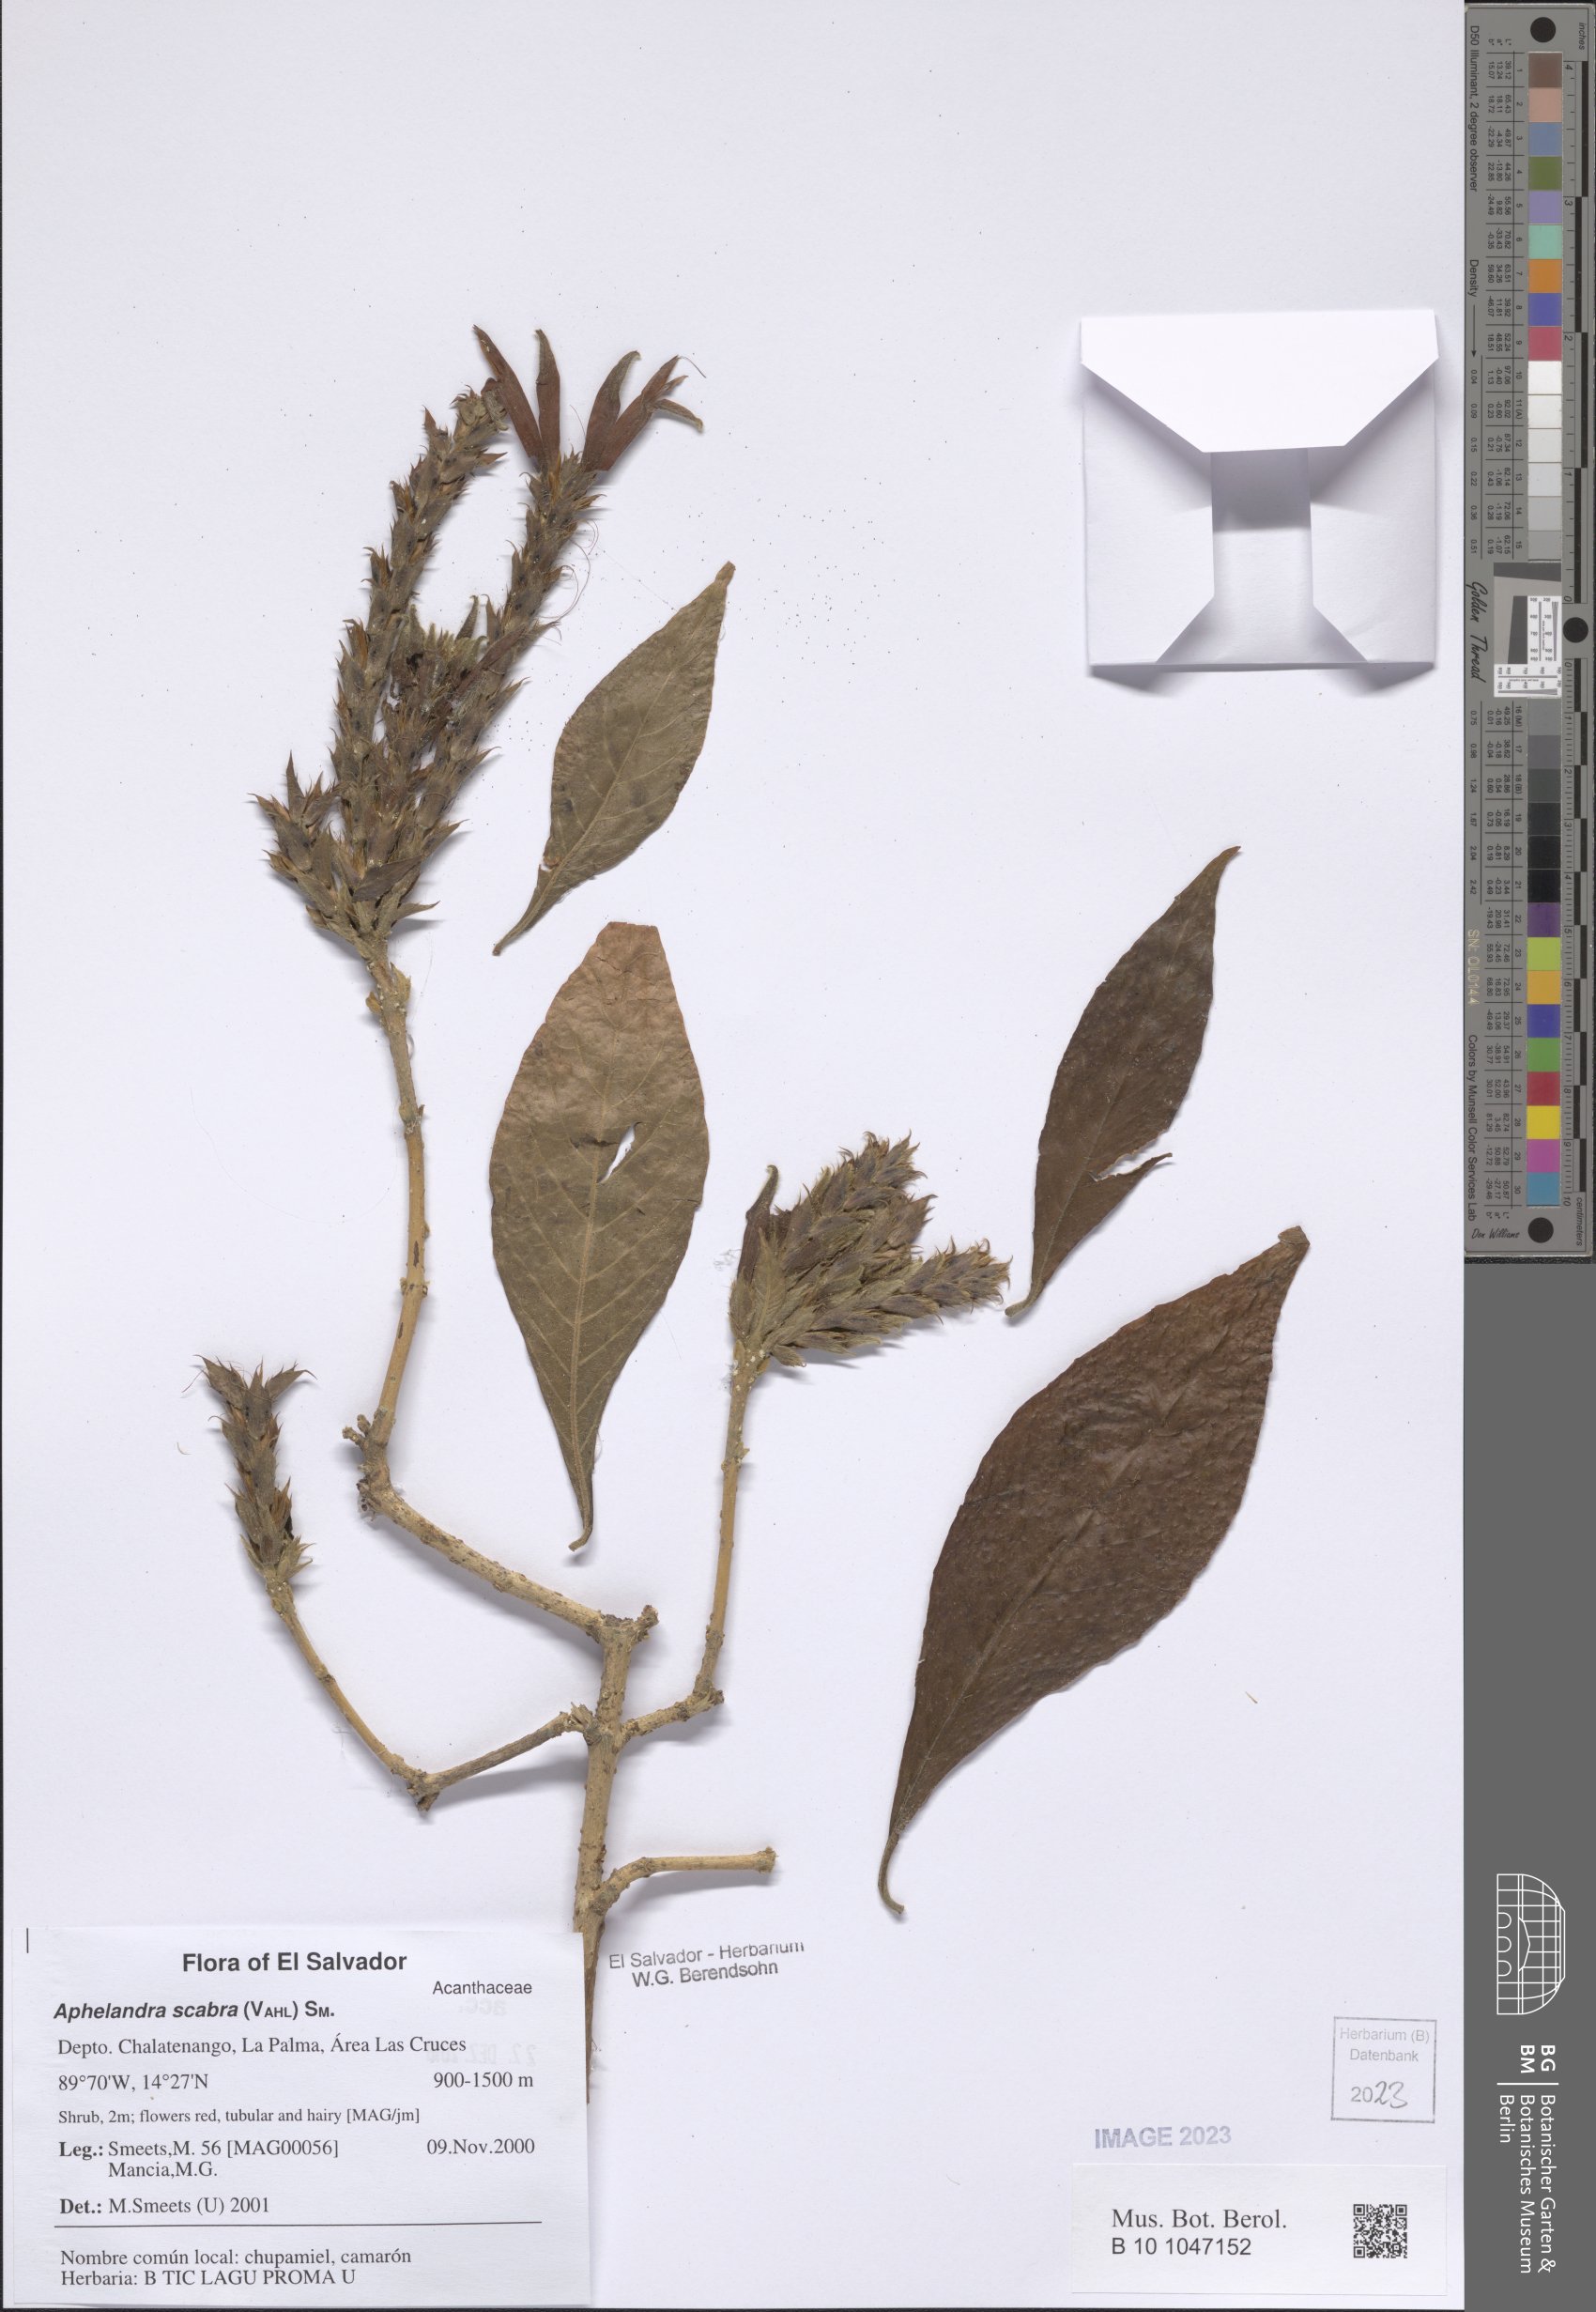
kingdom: Plantae
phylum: Tracheophyta
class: Magnoliopsida
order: Lamiales
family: Acanthaceae
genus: Aphelandra
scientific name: Aphelandra scabra
